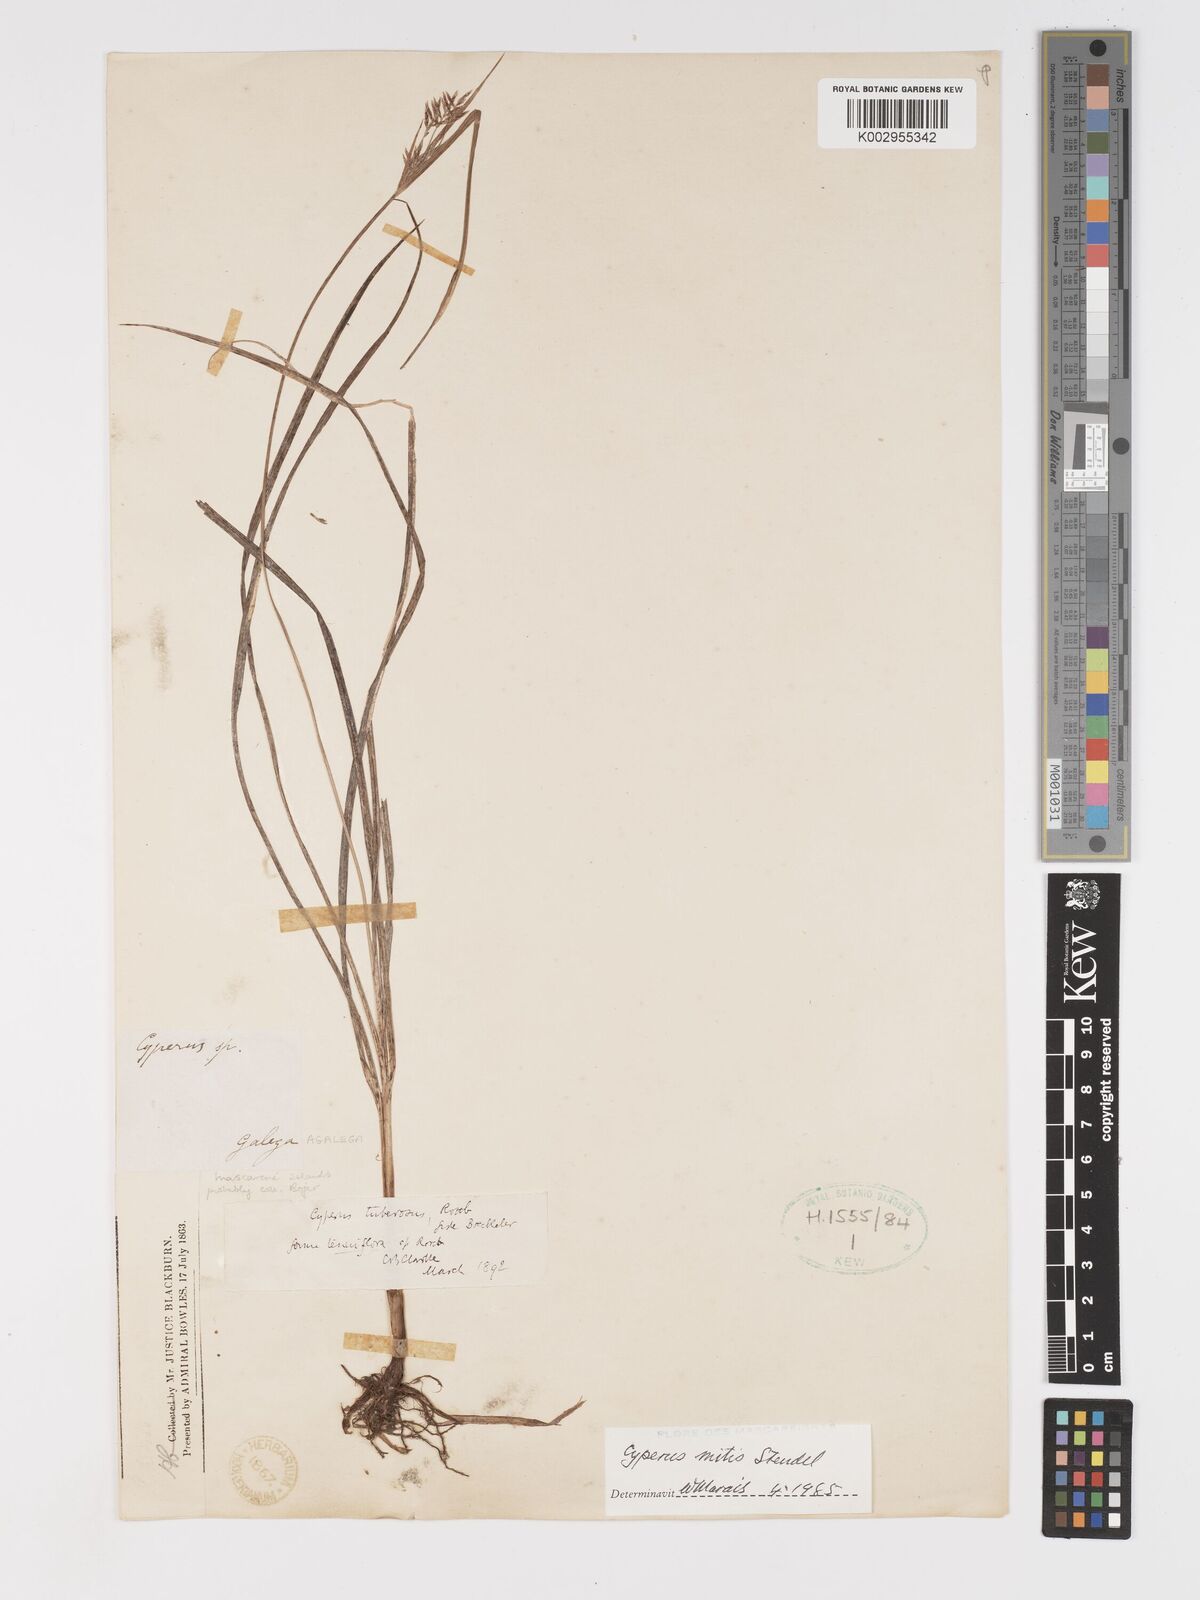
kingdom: Plantae
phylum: Tracheophyta
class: Liliopsida
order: Poales
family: Cyperaceae
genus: Cyperus
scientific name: Cyperus mitis
